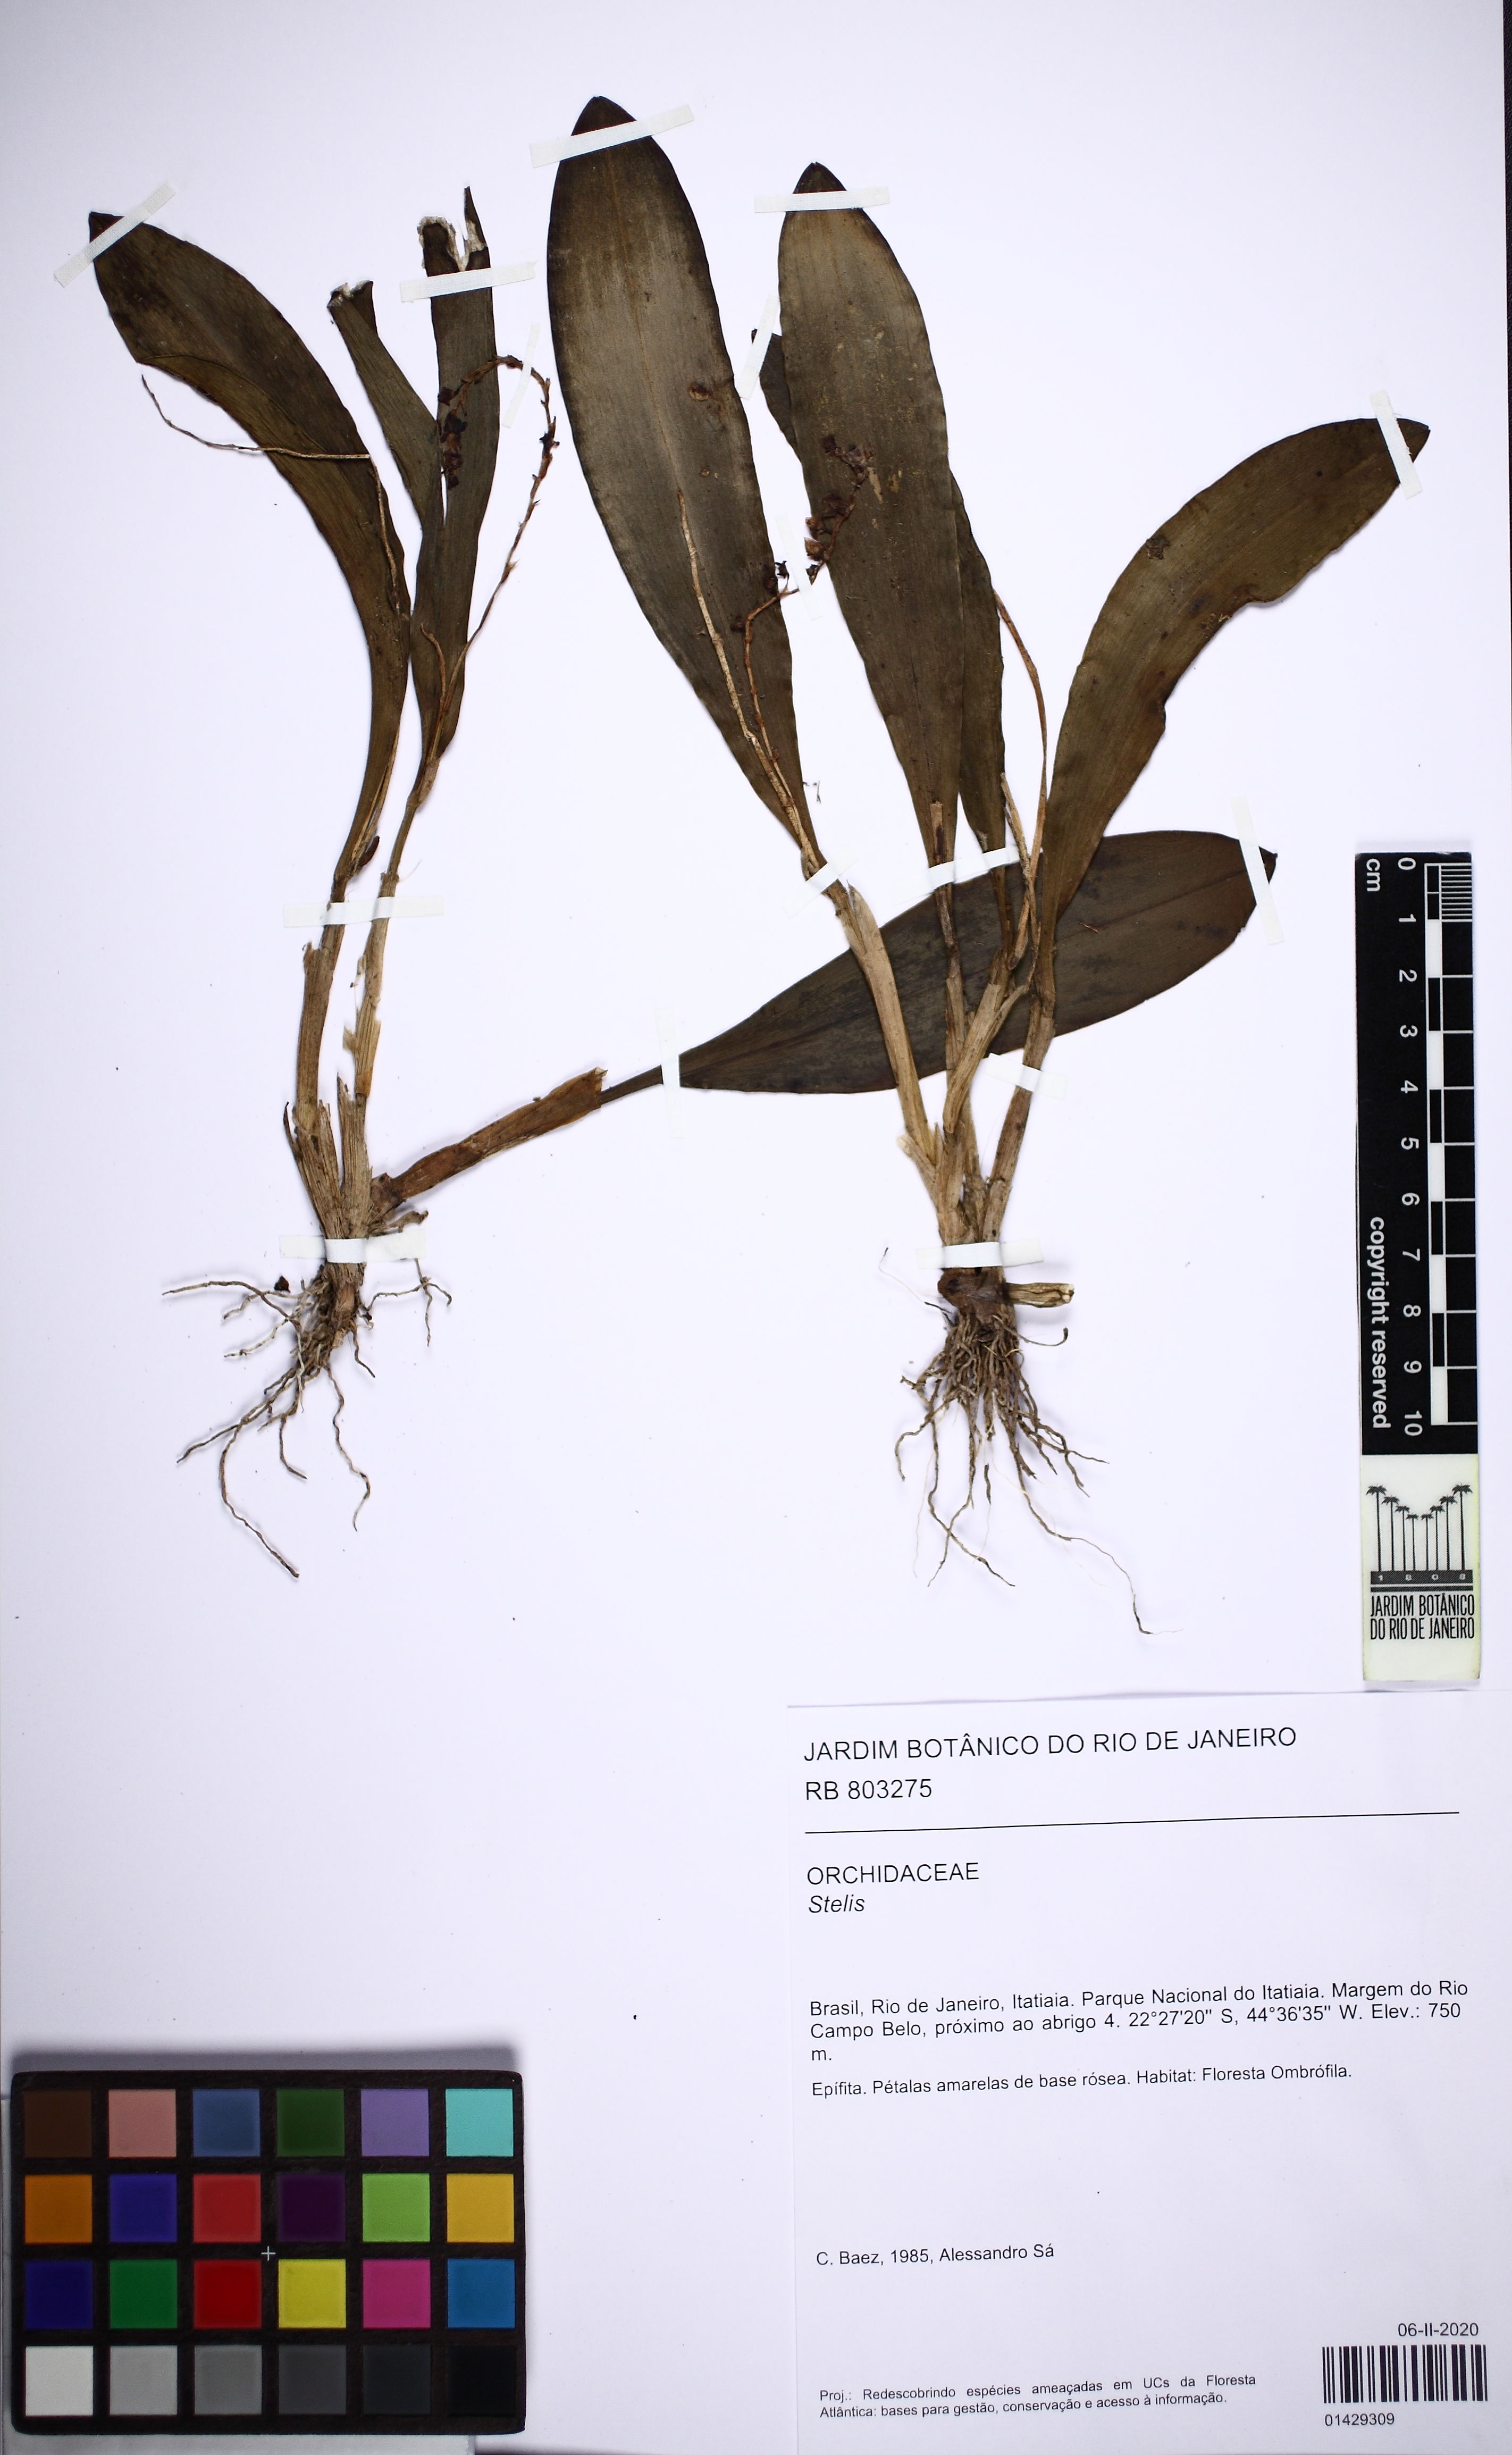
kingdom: Plantae
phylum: Tracheophyta
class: Liliopsida
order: Asparagales
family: Orchidaceae
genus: Stelis
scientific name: Stelis
